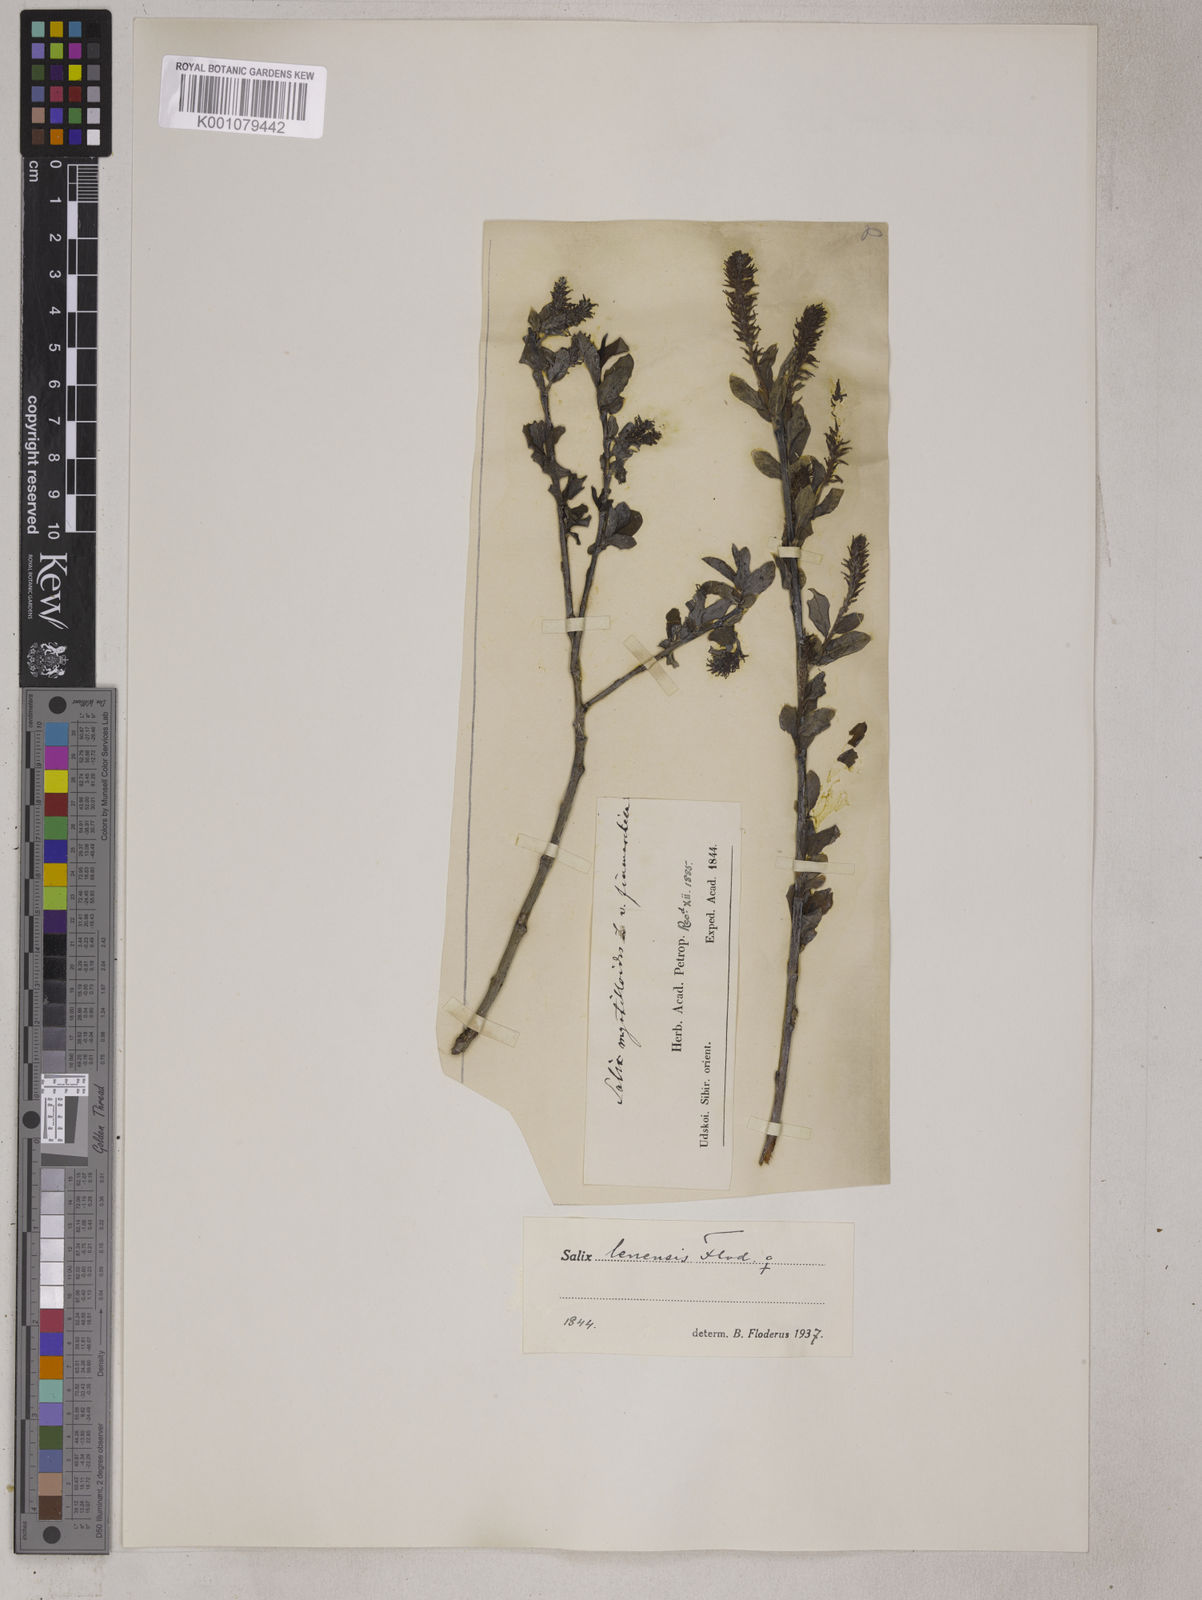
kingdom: Plantae
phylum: Tracheophyta
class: Magnoliopsida
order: Malpighiales
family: Salicaceae
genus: Salix
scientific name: Salix udensis
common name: Sachalin willow
